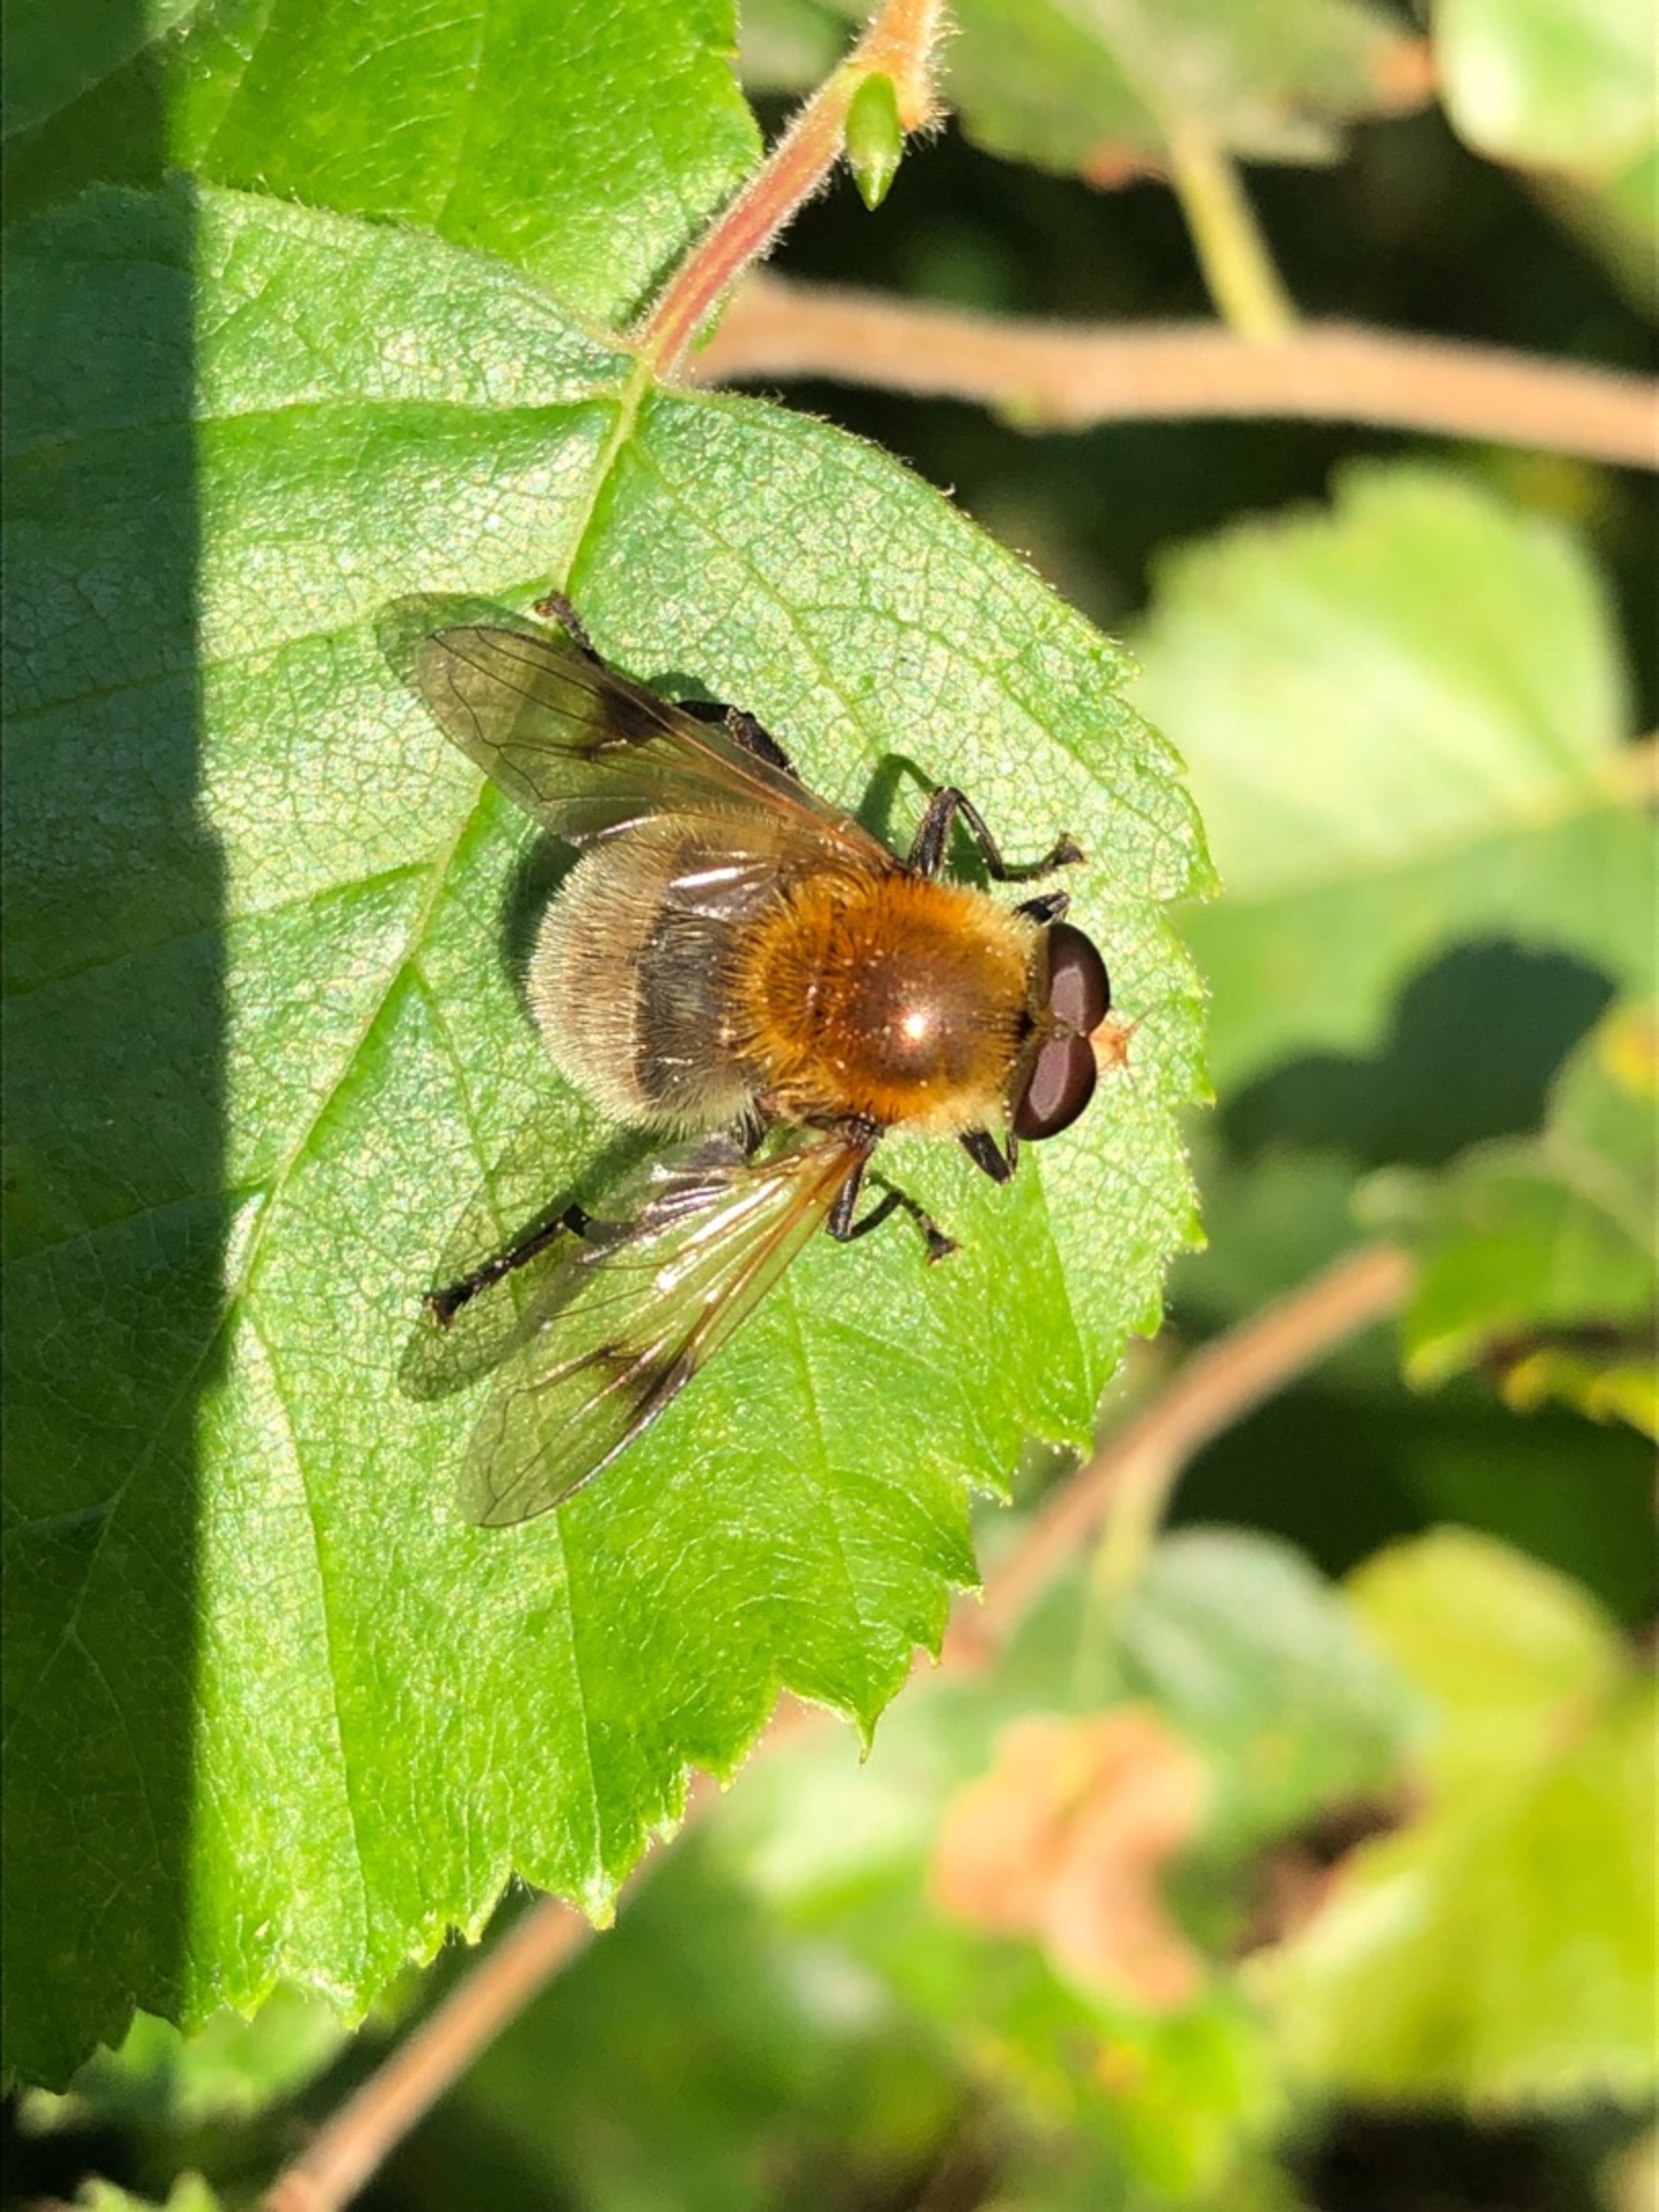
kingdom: Animalia
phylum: Arthropoda
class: Insecta
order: Diptera
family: Syrphidae
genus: Sericomyia
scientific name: Sericomyia superbiens
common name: Brun bjørnesvirreflue
